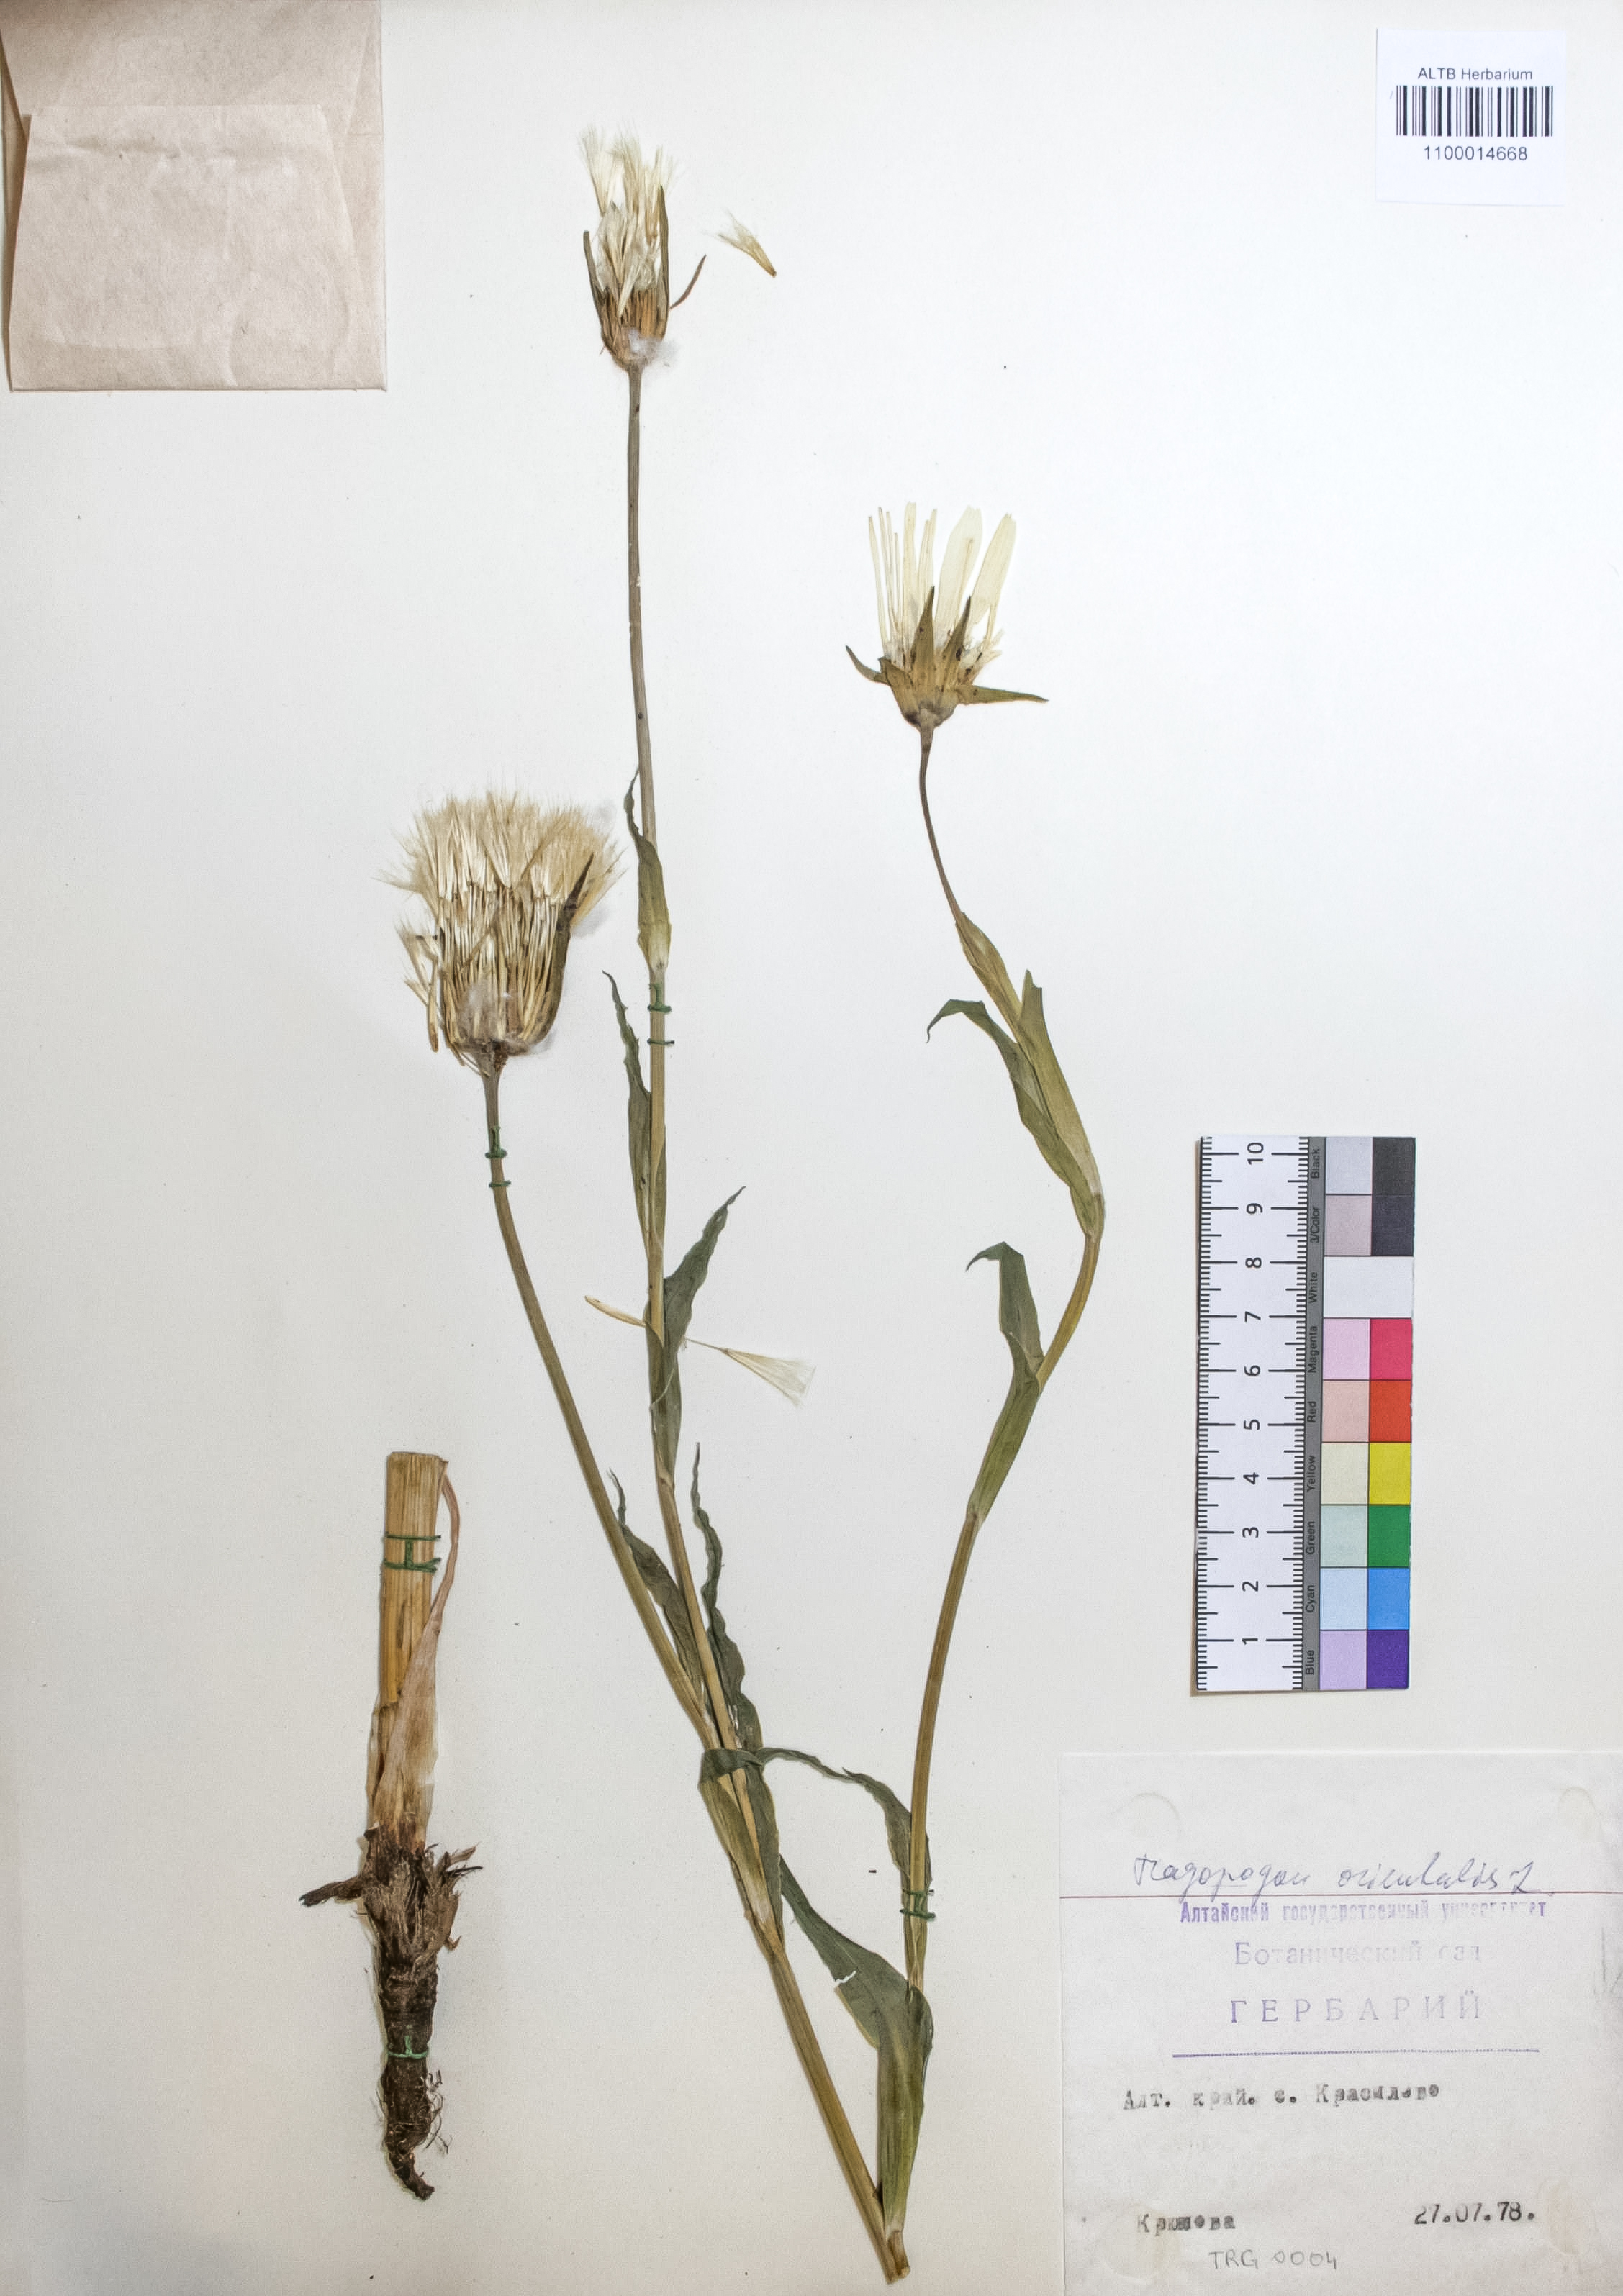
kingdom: Plantae
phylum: Tracheophyta
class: Magnoliopsida
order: Asterales
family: Asteraceae
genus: Tragopogon
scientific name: Tragopogon orientalis
